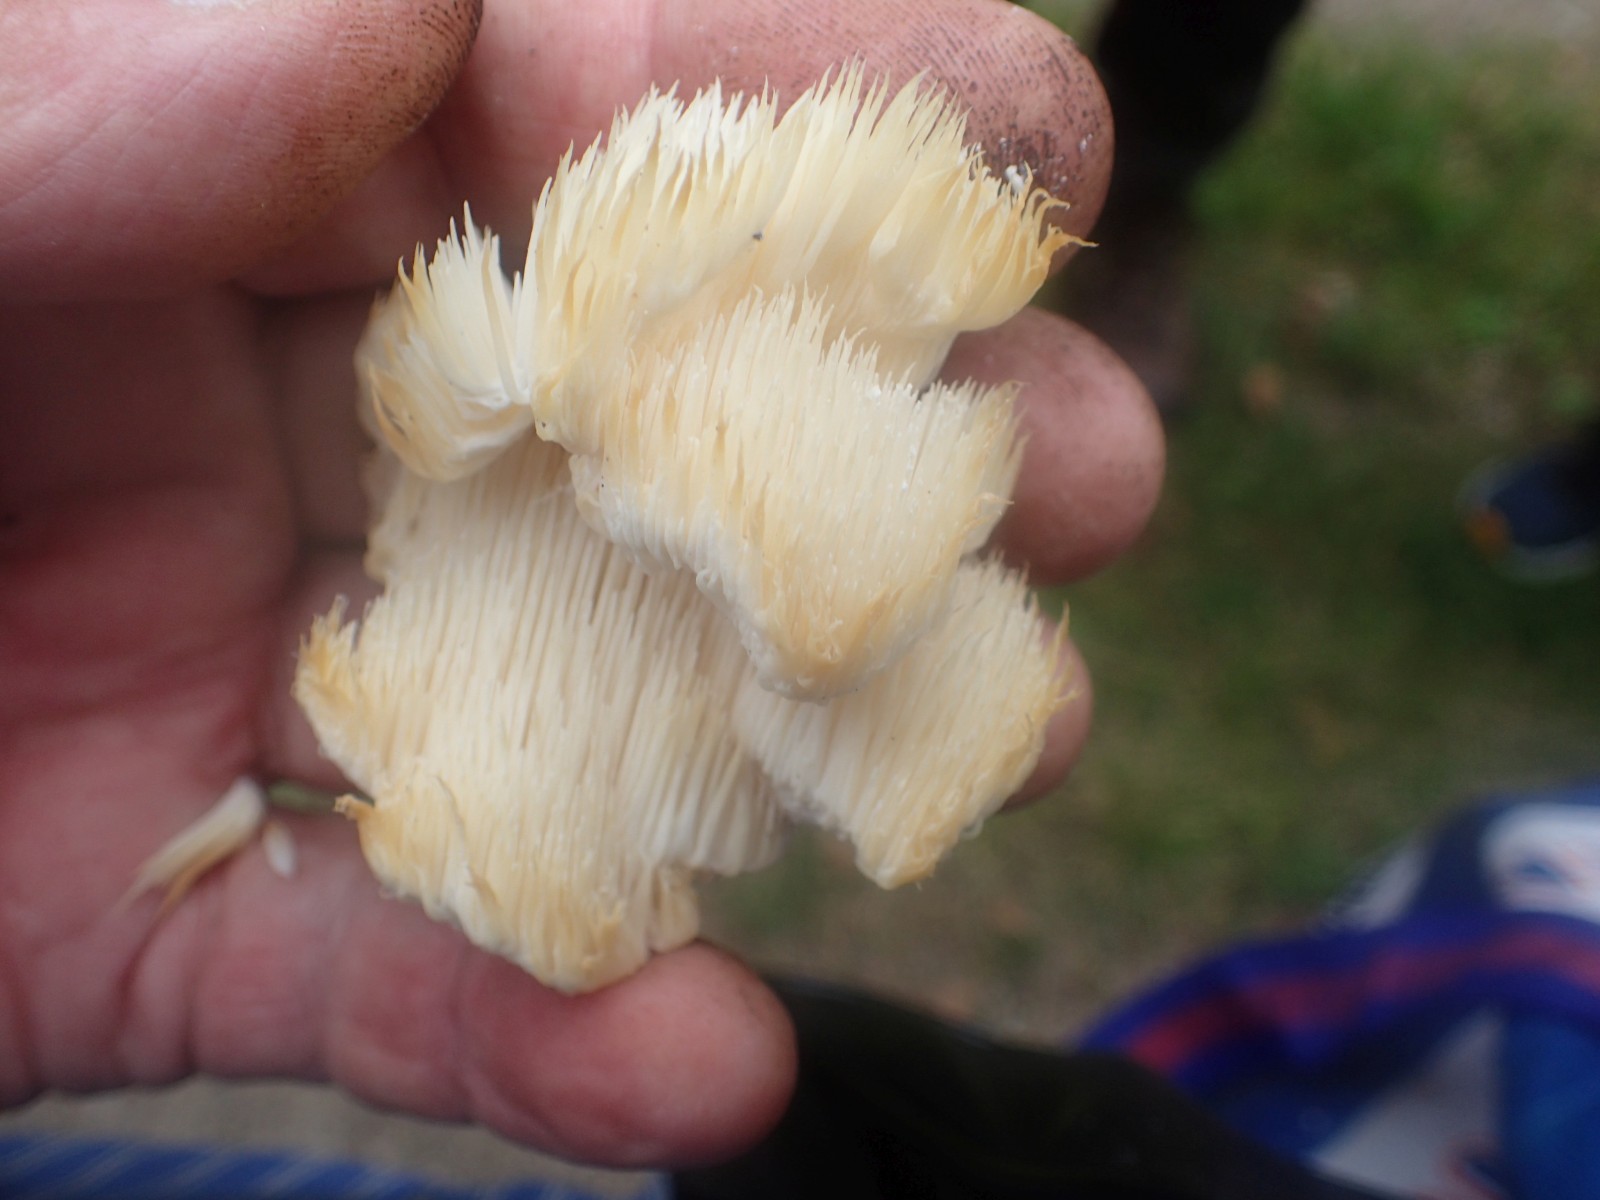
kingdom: Fungi
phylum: Basidiomycota
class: Agaricomycetes
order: Russulales
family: Hericiaceae
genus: Hericium
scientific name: Hericium
